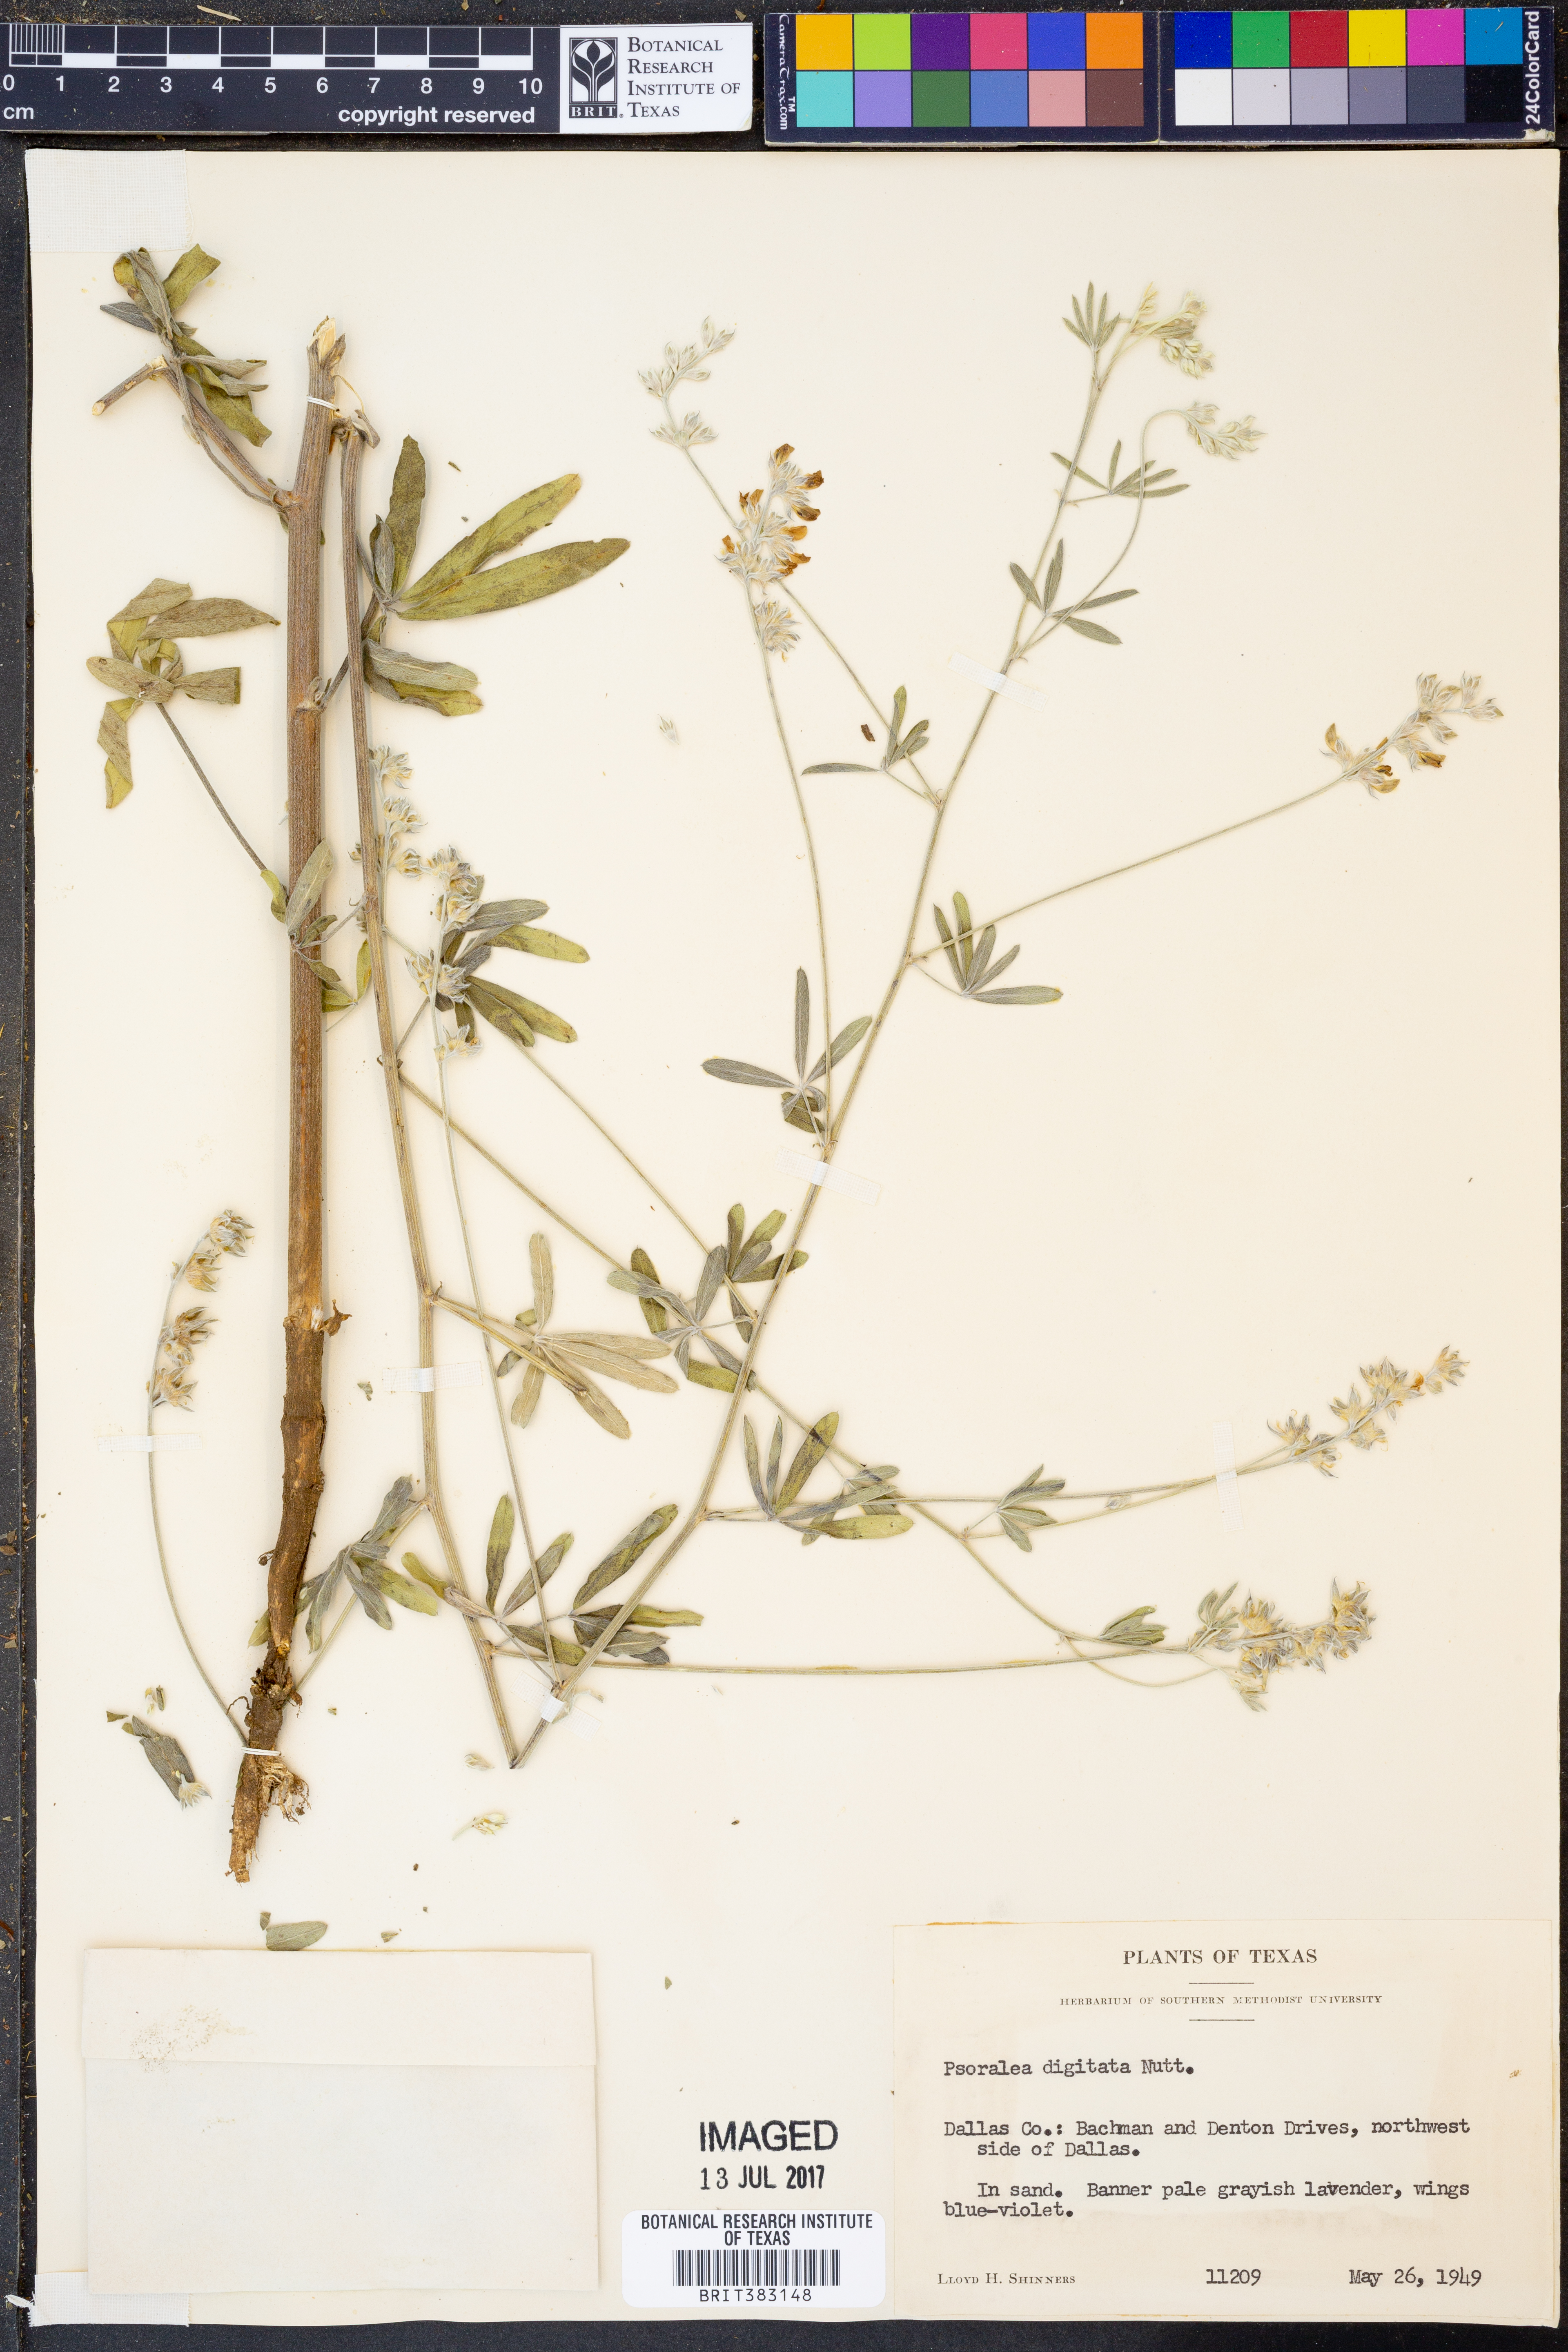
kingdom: Plantae
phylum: Tracheophyta
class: Magnoliopsida
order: Fabales
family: Fabaceae
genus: Pediomelum
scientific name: Pediomelum digitatum
